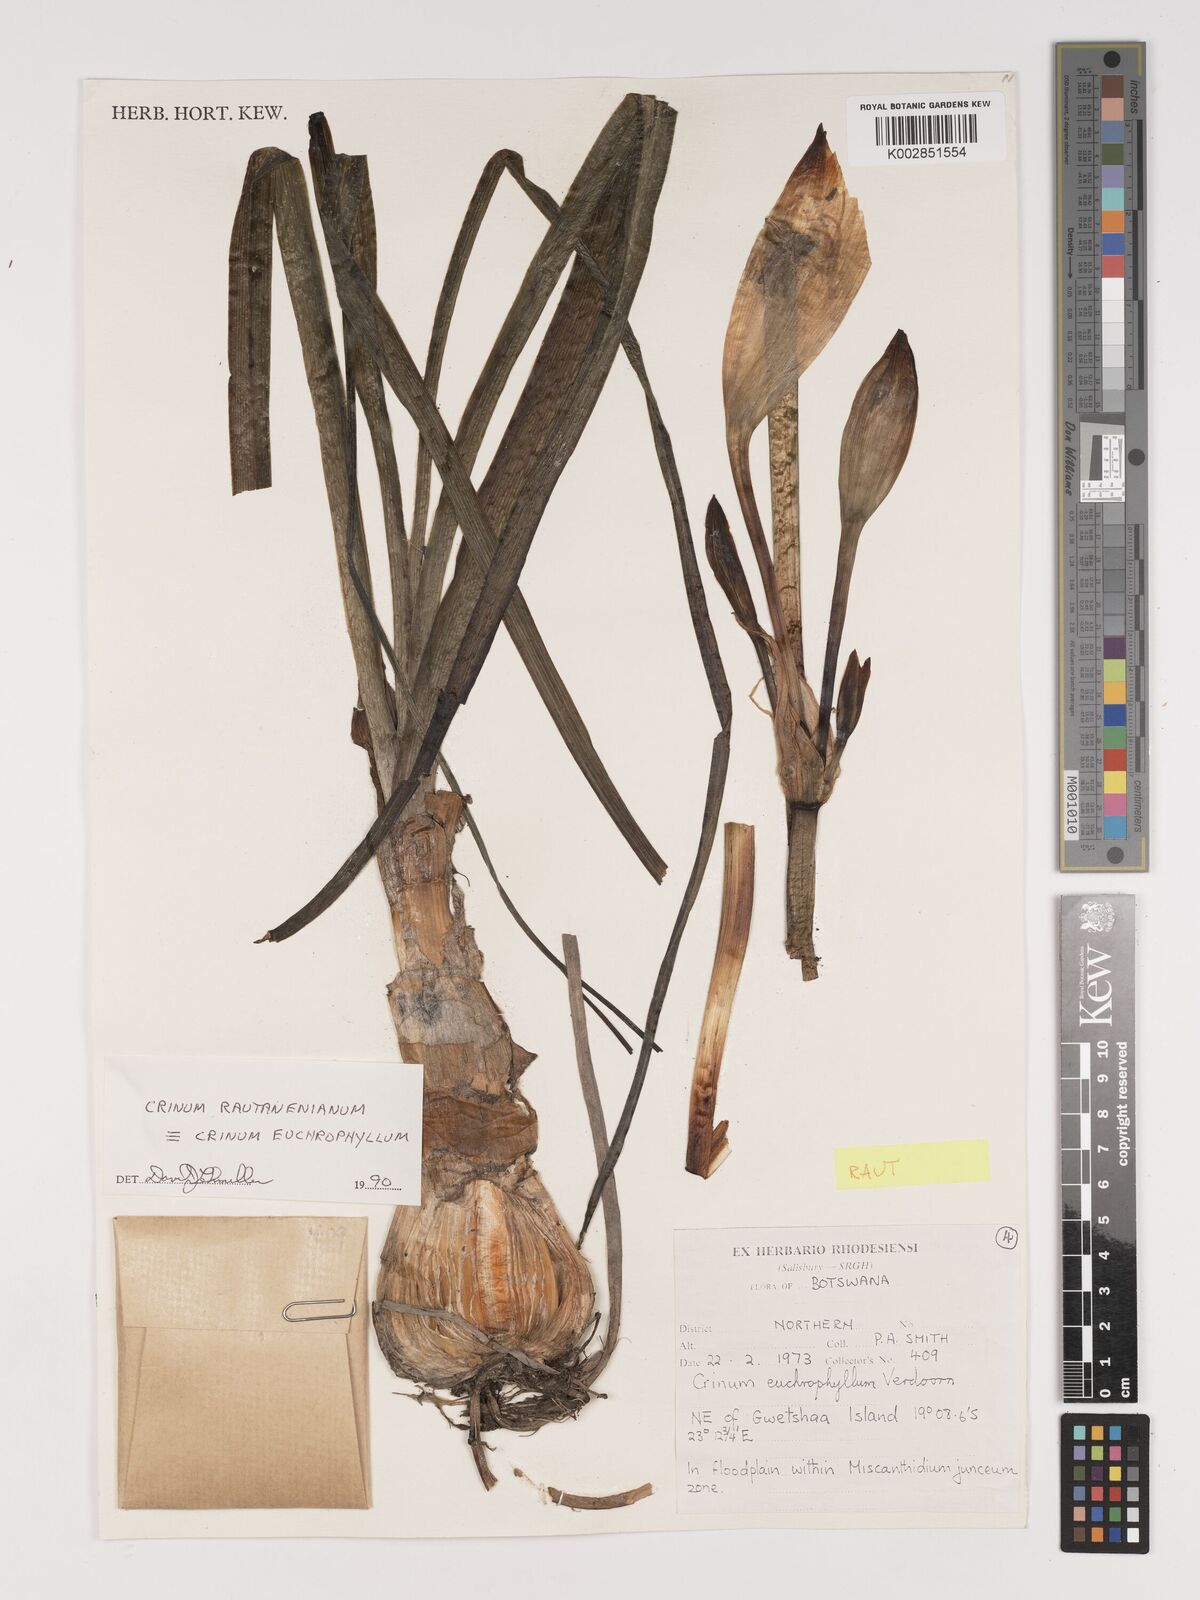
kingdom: Plantae
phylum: Tracheophyta
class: Liliopsida
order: Asparagales
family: Amaryllidaceae
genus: Crinum
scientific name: Crinum rautanenianum
